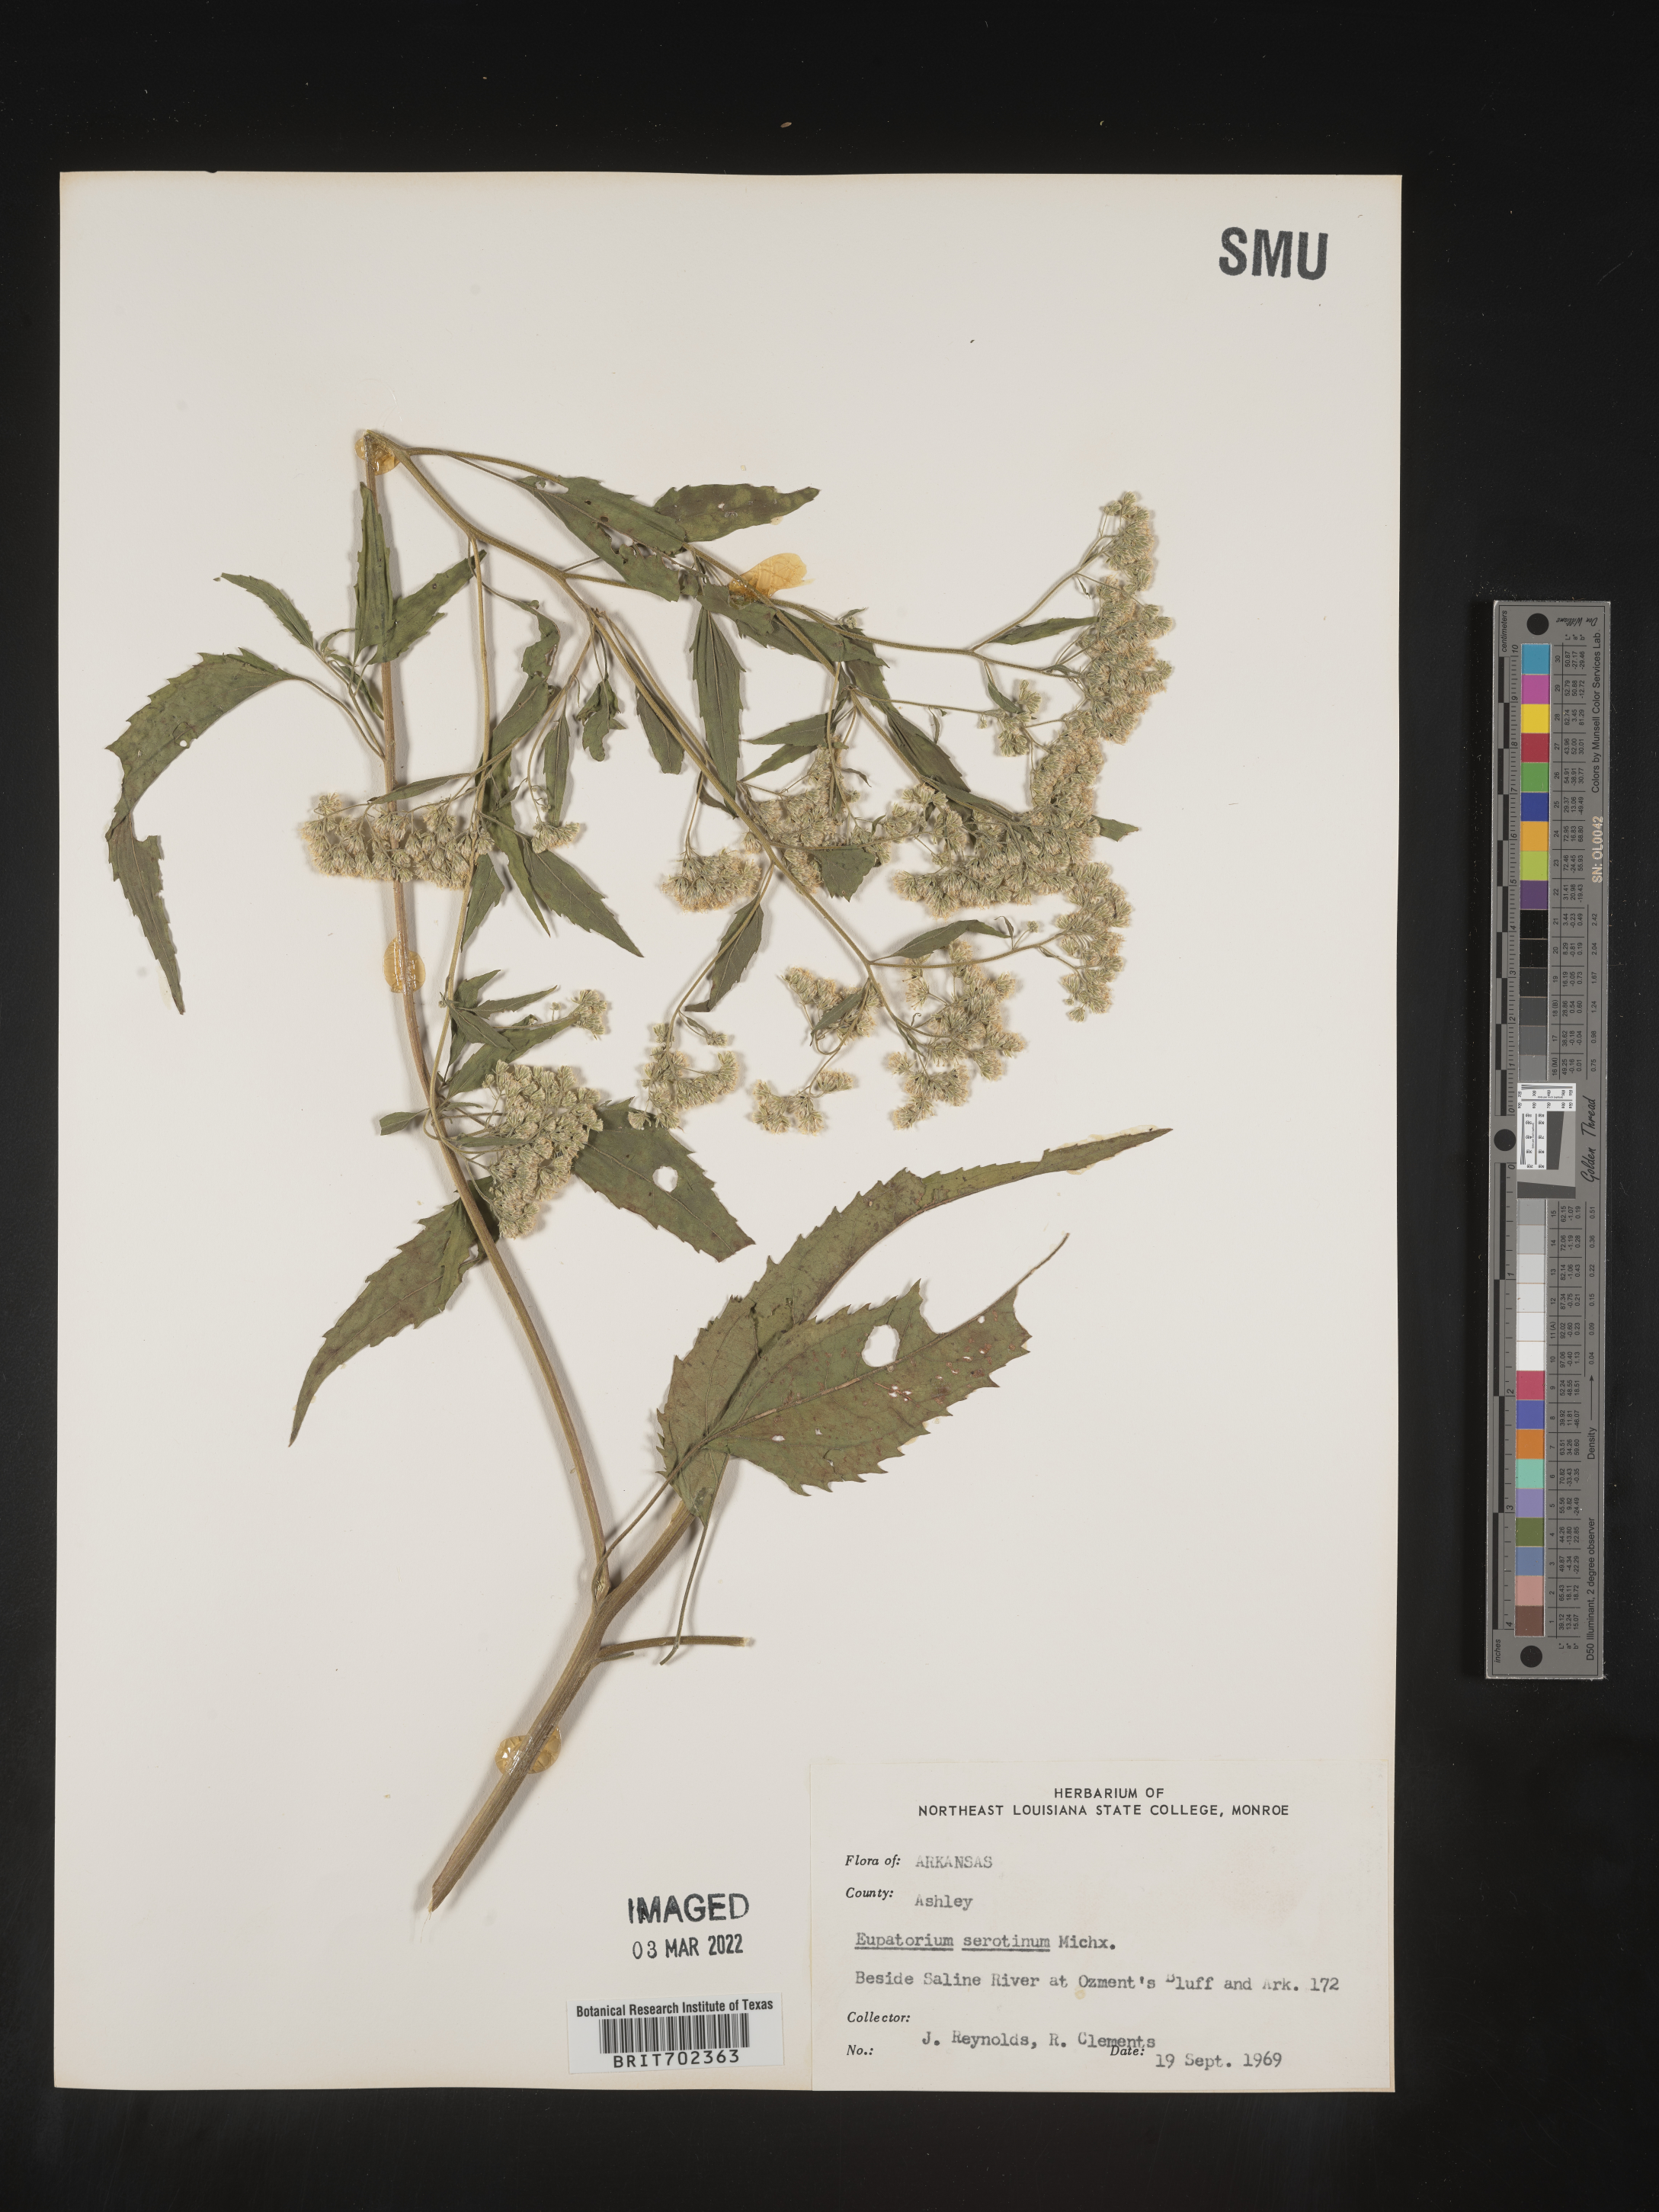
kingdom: Plantae
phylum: Tracheophyta
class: Magnoliopsida
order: Asterales
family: Asteraceae
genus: Eupatorium
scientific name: Eupatorium serotinum
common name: Late boneset
